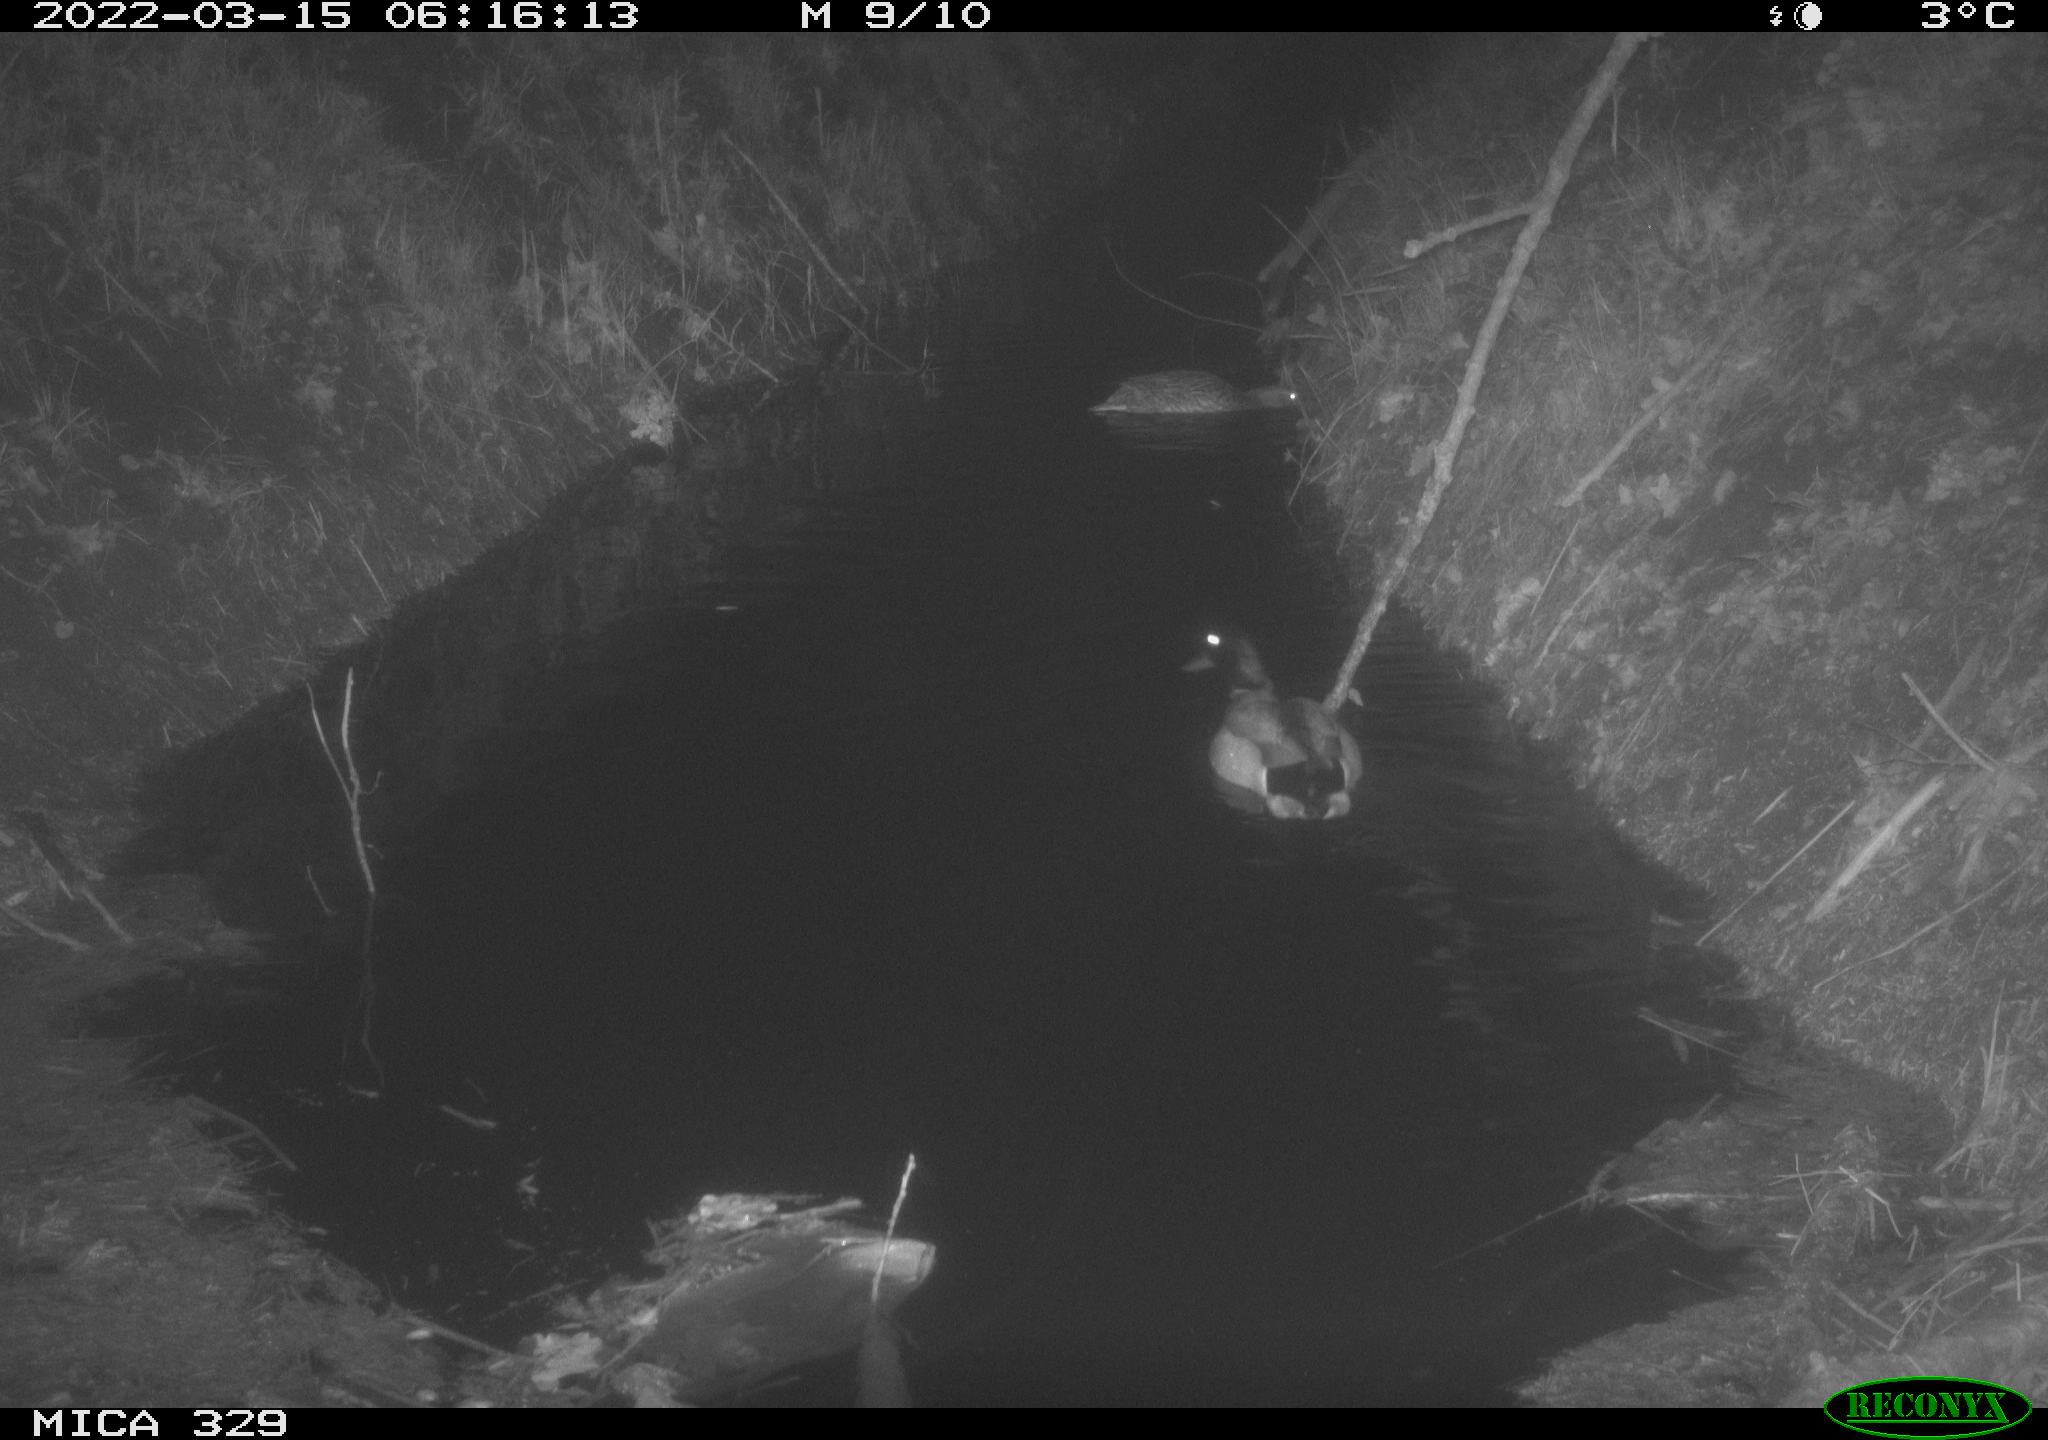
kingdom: Animalia
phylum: Chordata
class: Aves
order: Anseriformes
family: Anatidae
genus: Anas
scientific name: Anas platyrhynchos
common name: Mallard
